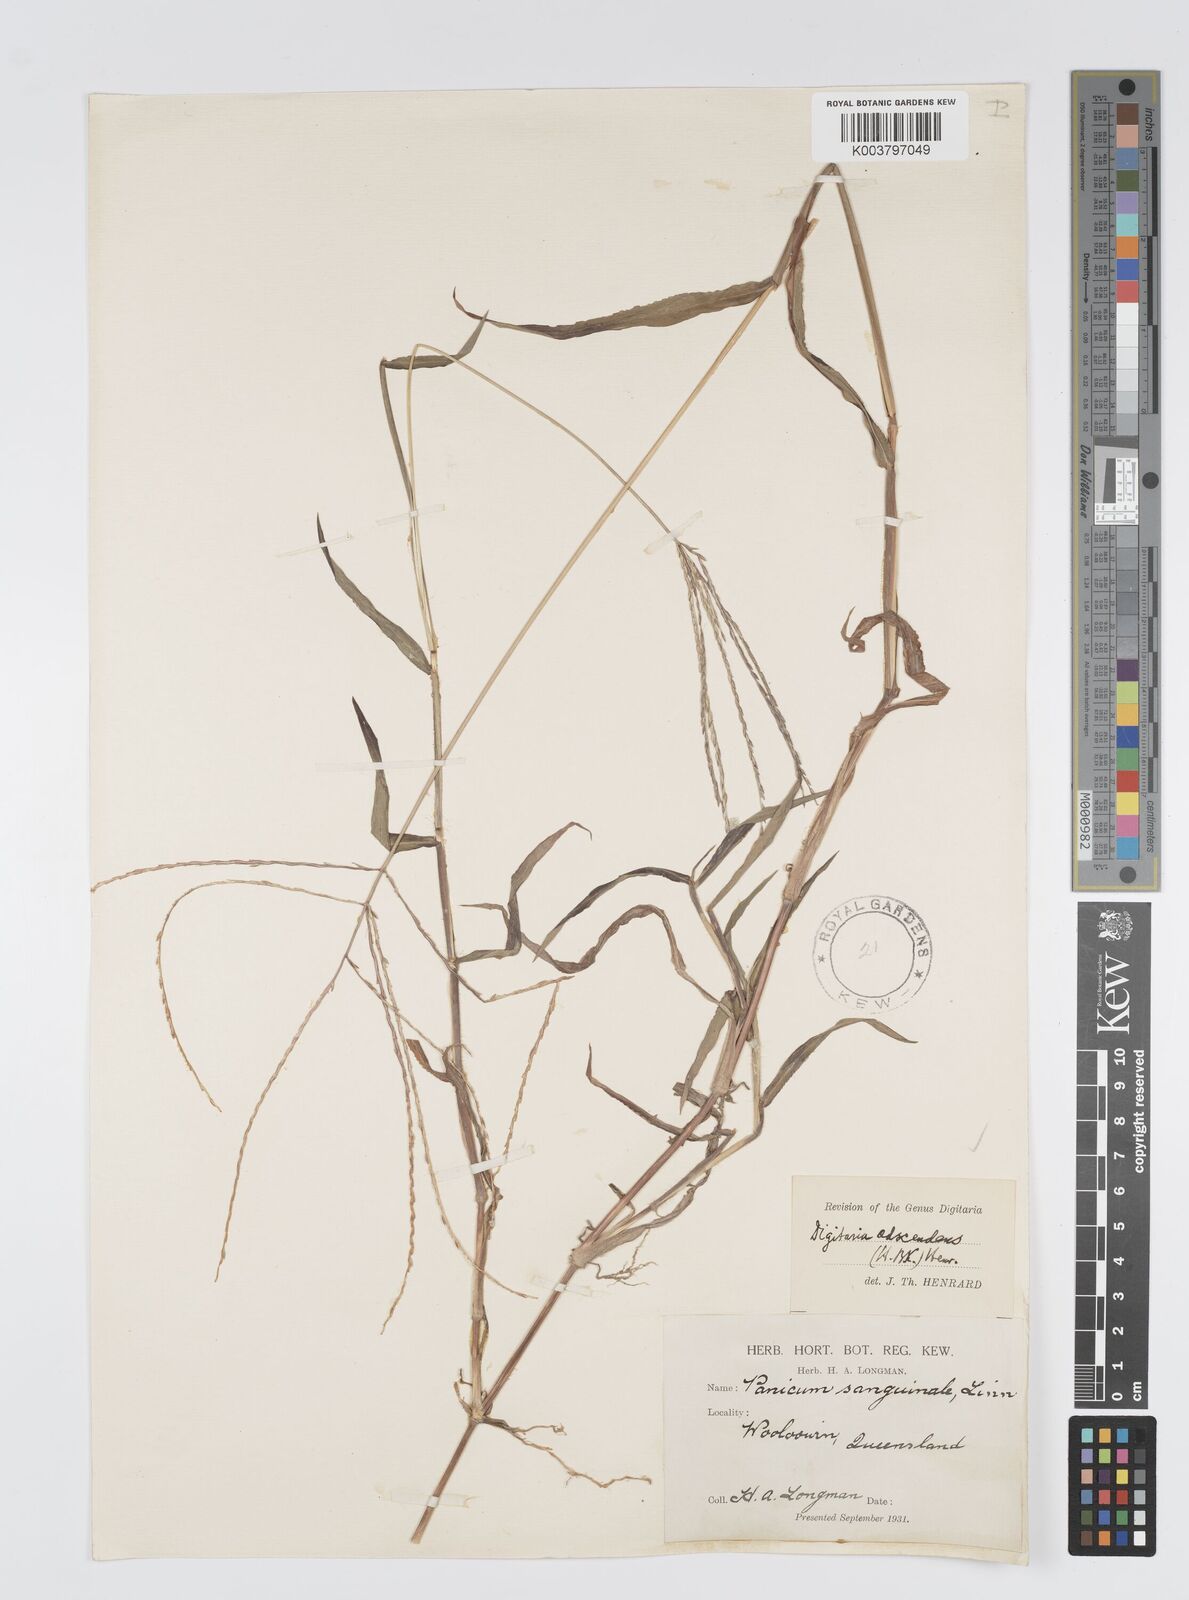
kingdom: Plantae
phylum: Tracheophyta
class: Liliopsida
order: Poales
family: Poaceae
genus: Digitaria
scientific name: Digitaria ciliaris
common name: Tropical finger-grass
